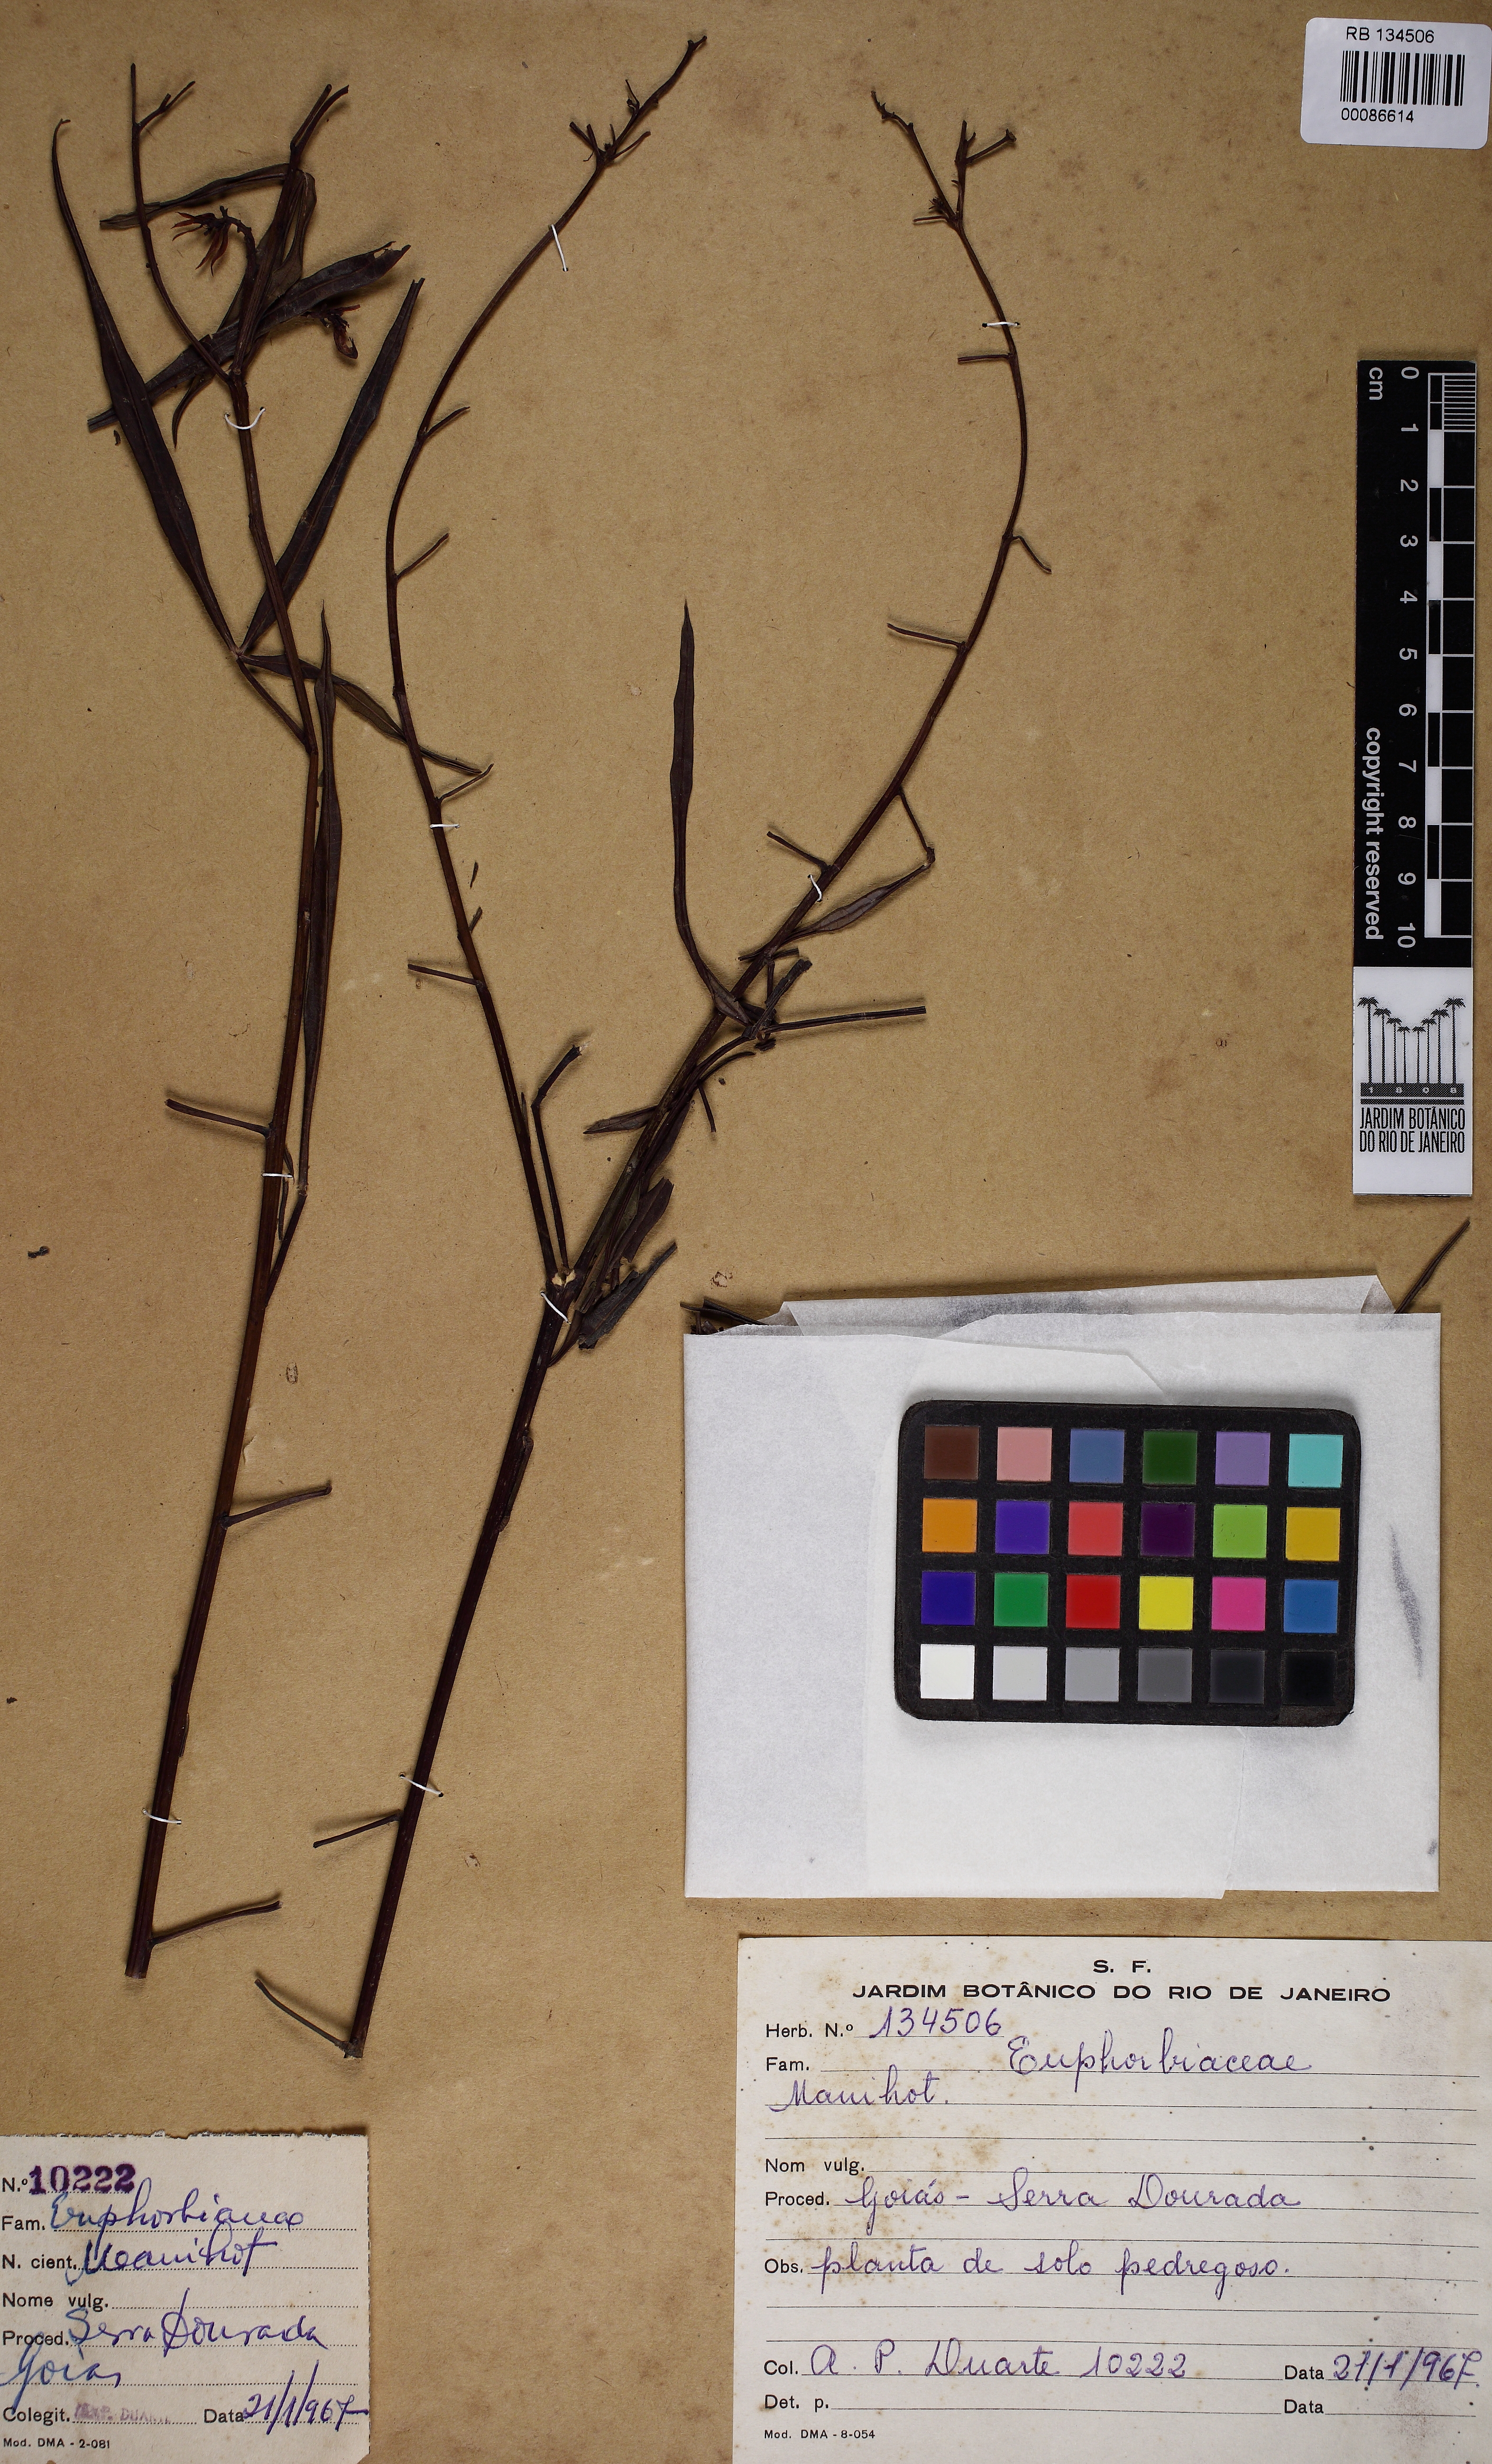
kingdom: Plantae
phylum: Tracheophyta
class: Magnoliopsida
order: Malpighiales
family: Euphorbiaceae
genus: Manihot
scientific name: Manihot
